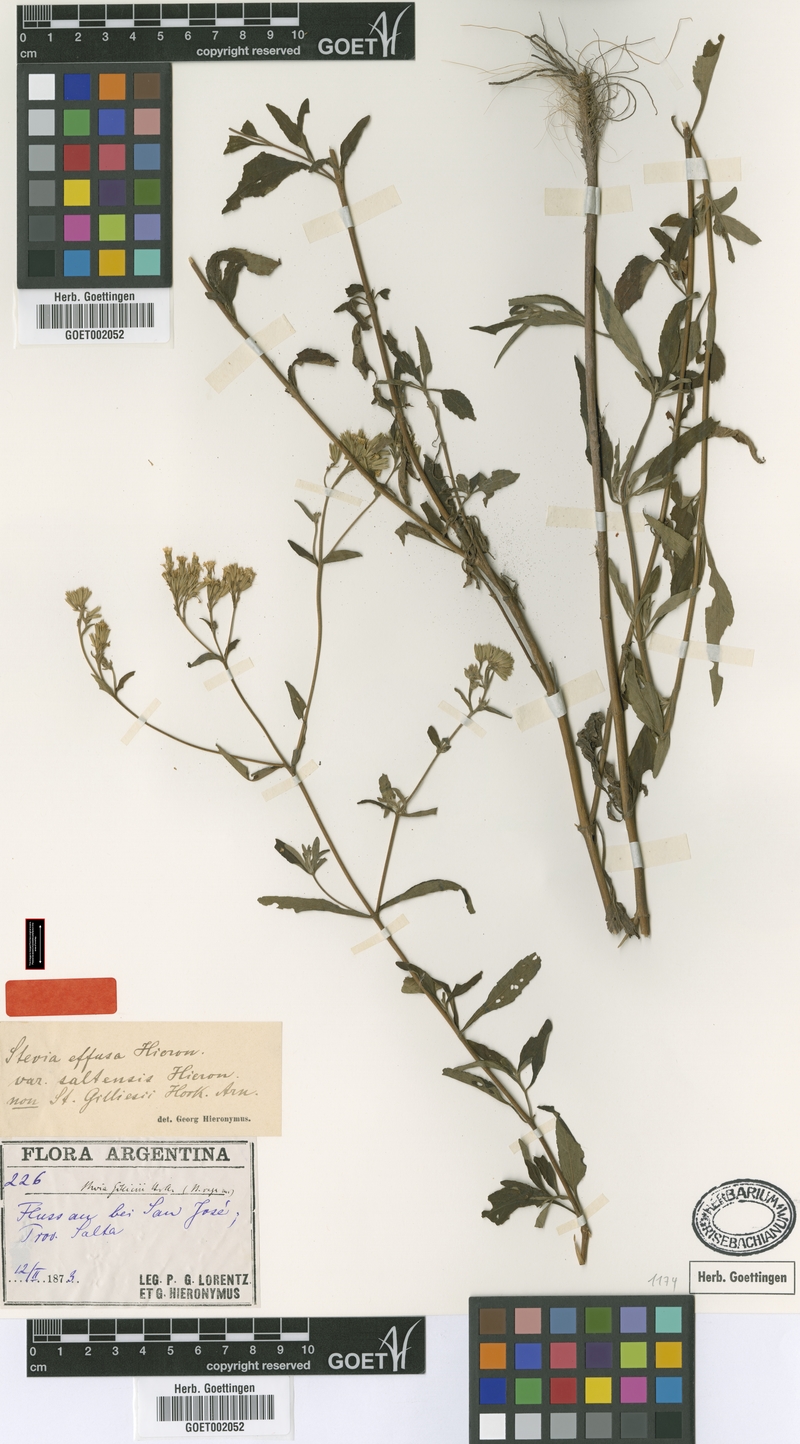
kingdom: Plantae
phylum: Tracheophyta
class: Magnoliopsida
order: Asterales
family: Asteraceae
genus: Stevia
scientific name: Stevia vaga
